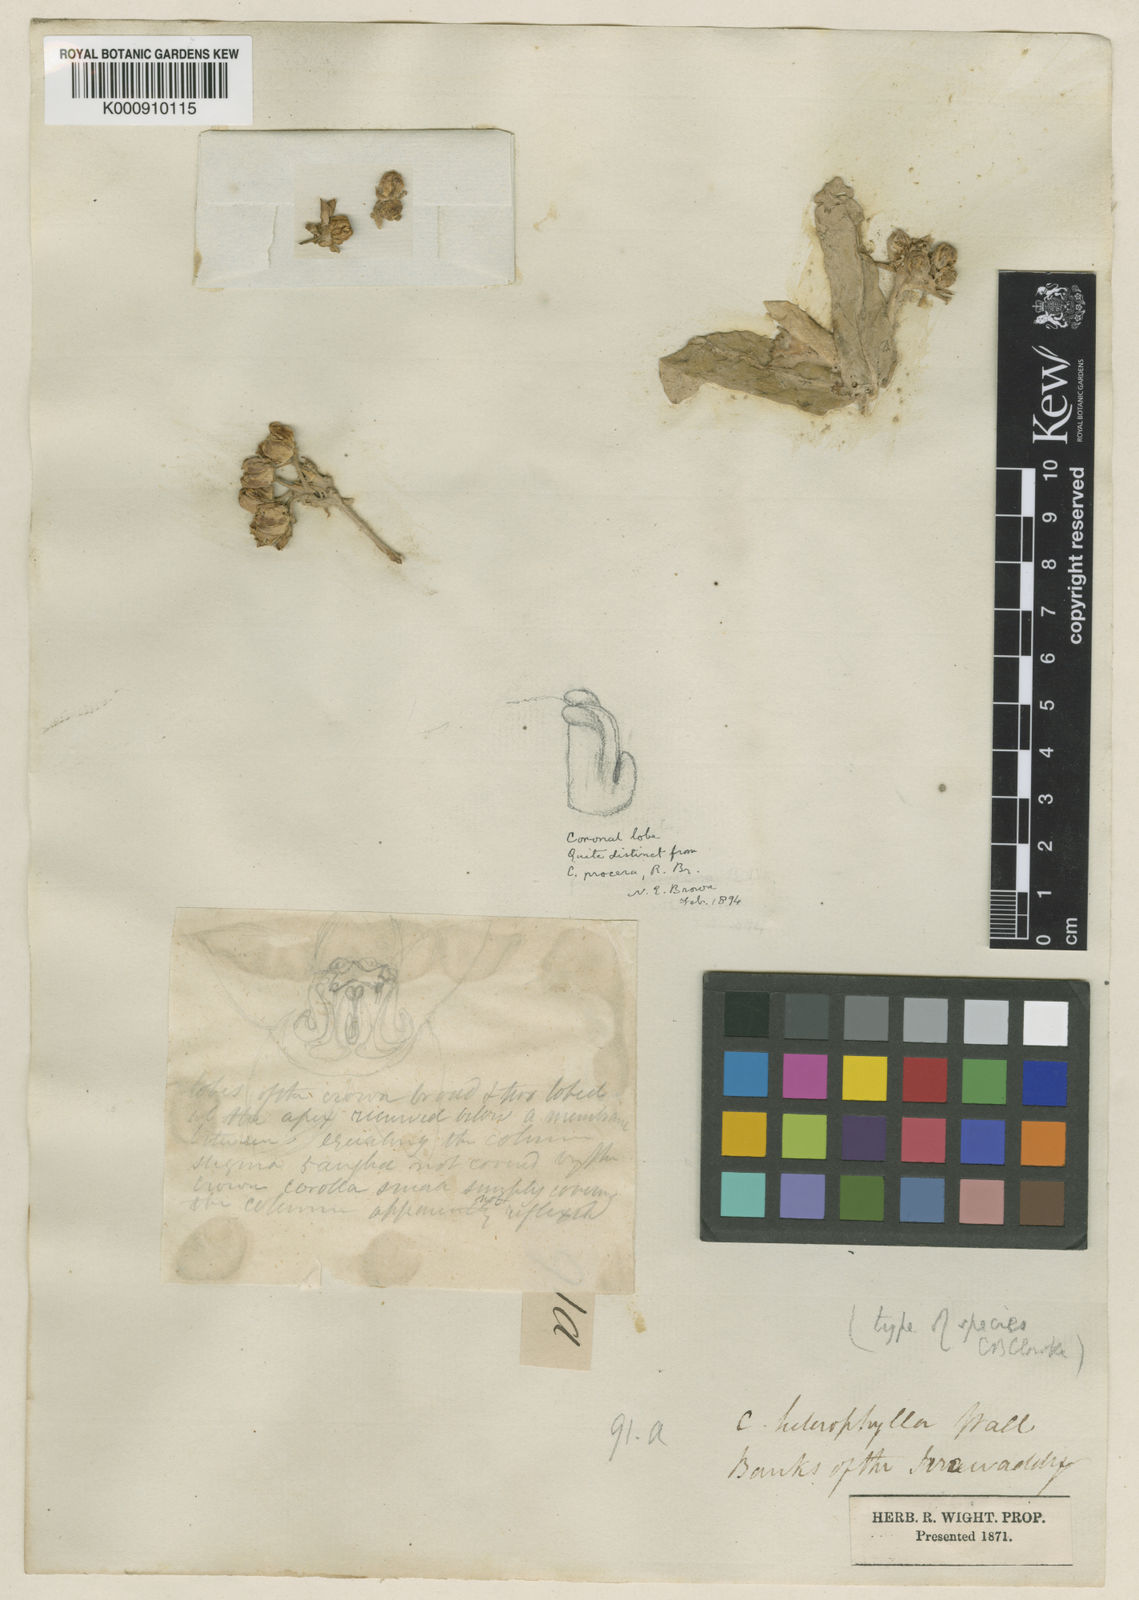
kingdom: Plantae
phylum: Tracheophyta
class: Magnoliopsida
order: Gentianales
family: Apocynaceae
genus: Calotropis
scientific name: Calotropis
